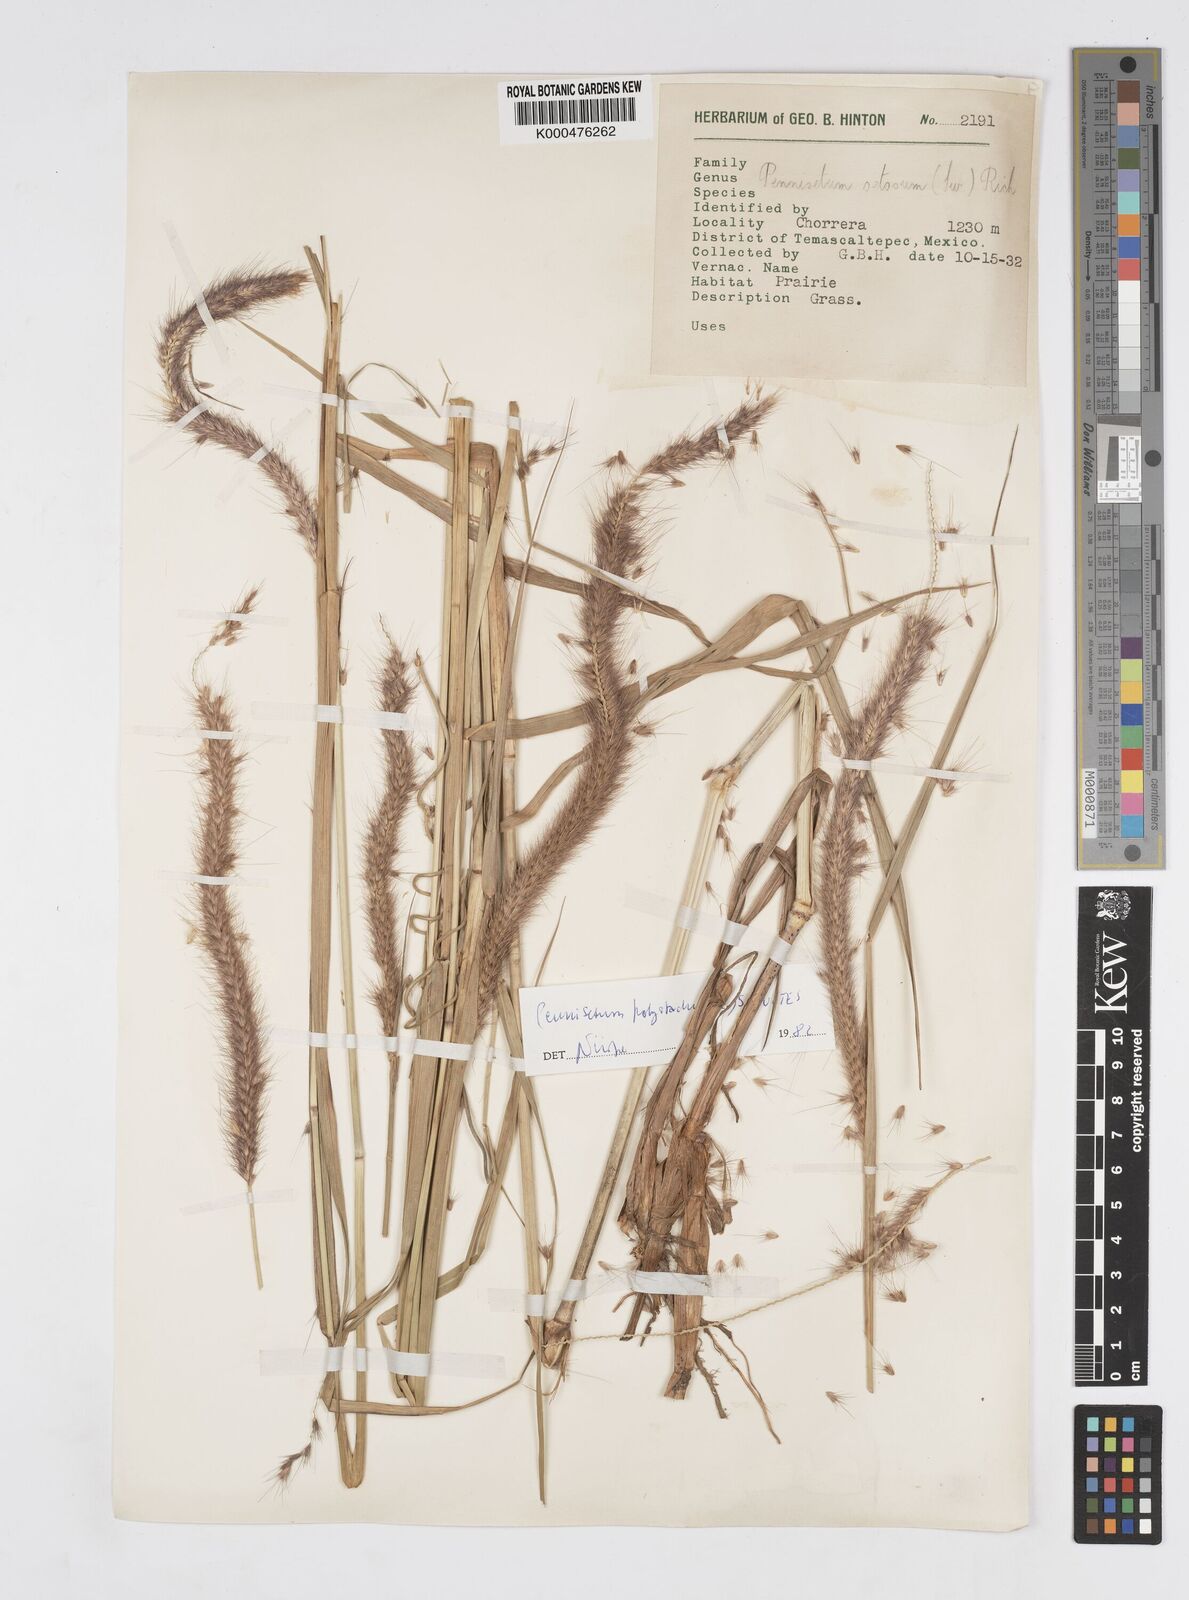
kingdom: Plantae
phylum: Tracheophyta
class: Liliopsida
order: Poales
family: Poaceae
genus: Setaria
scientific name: Setaria parviflora
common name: Knotroot bristle-grass
